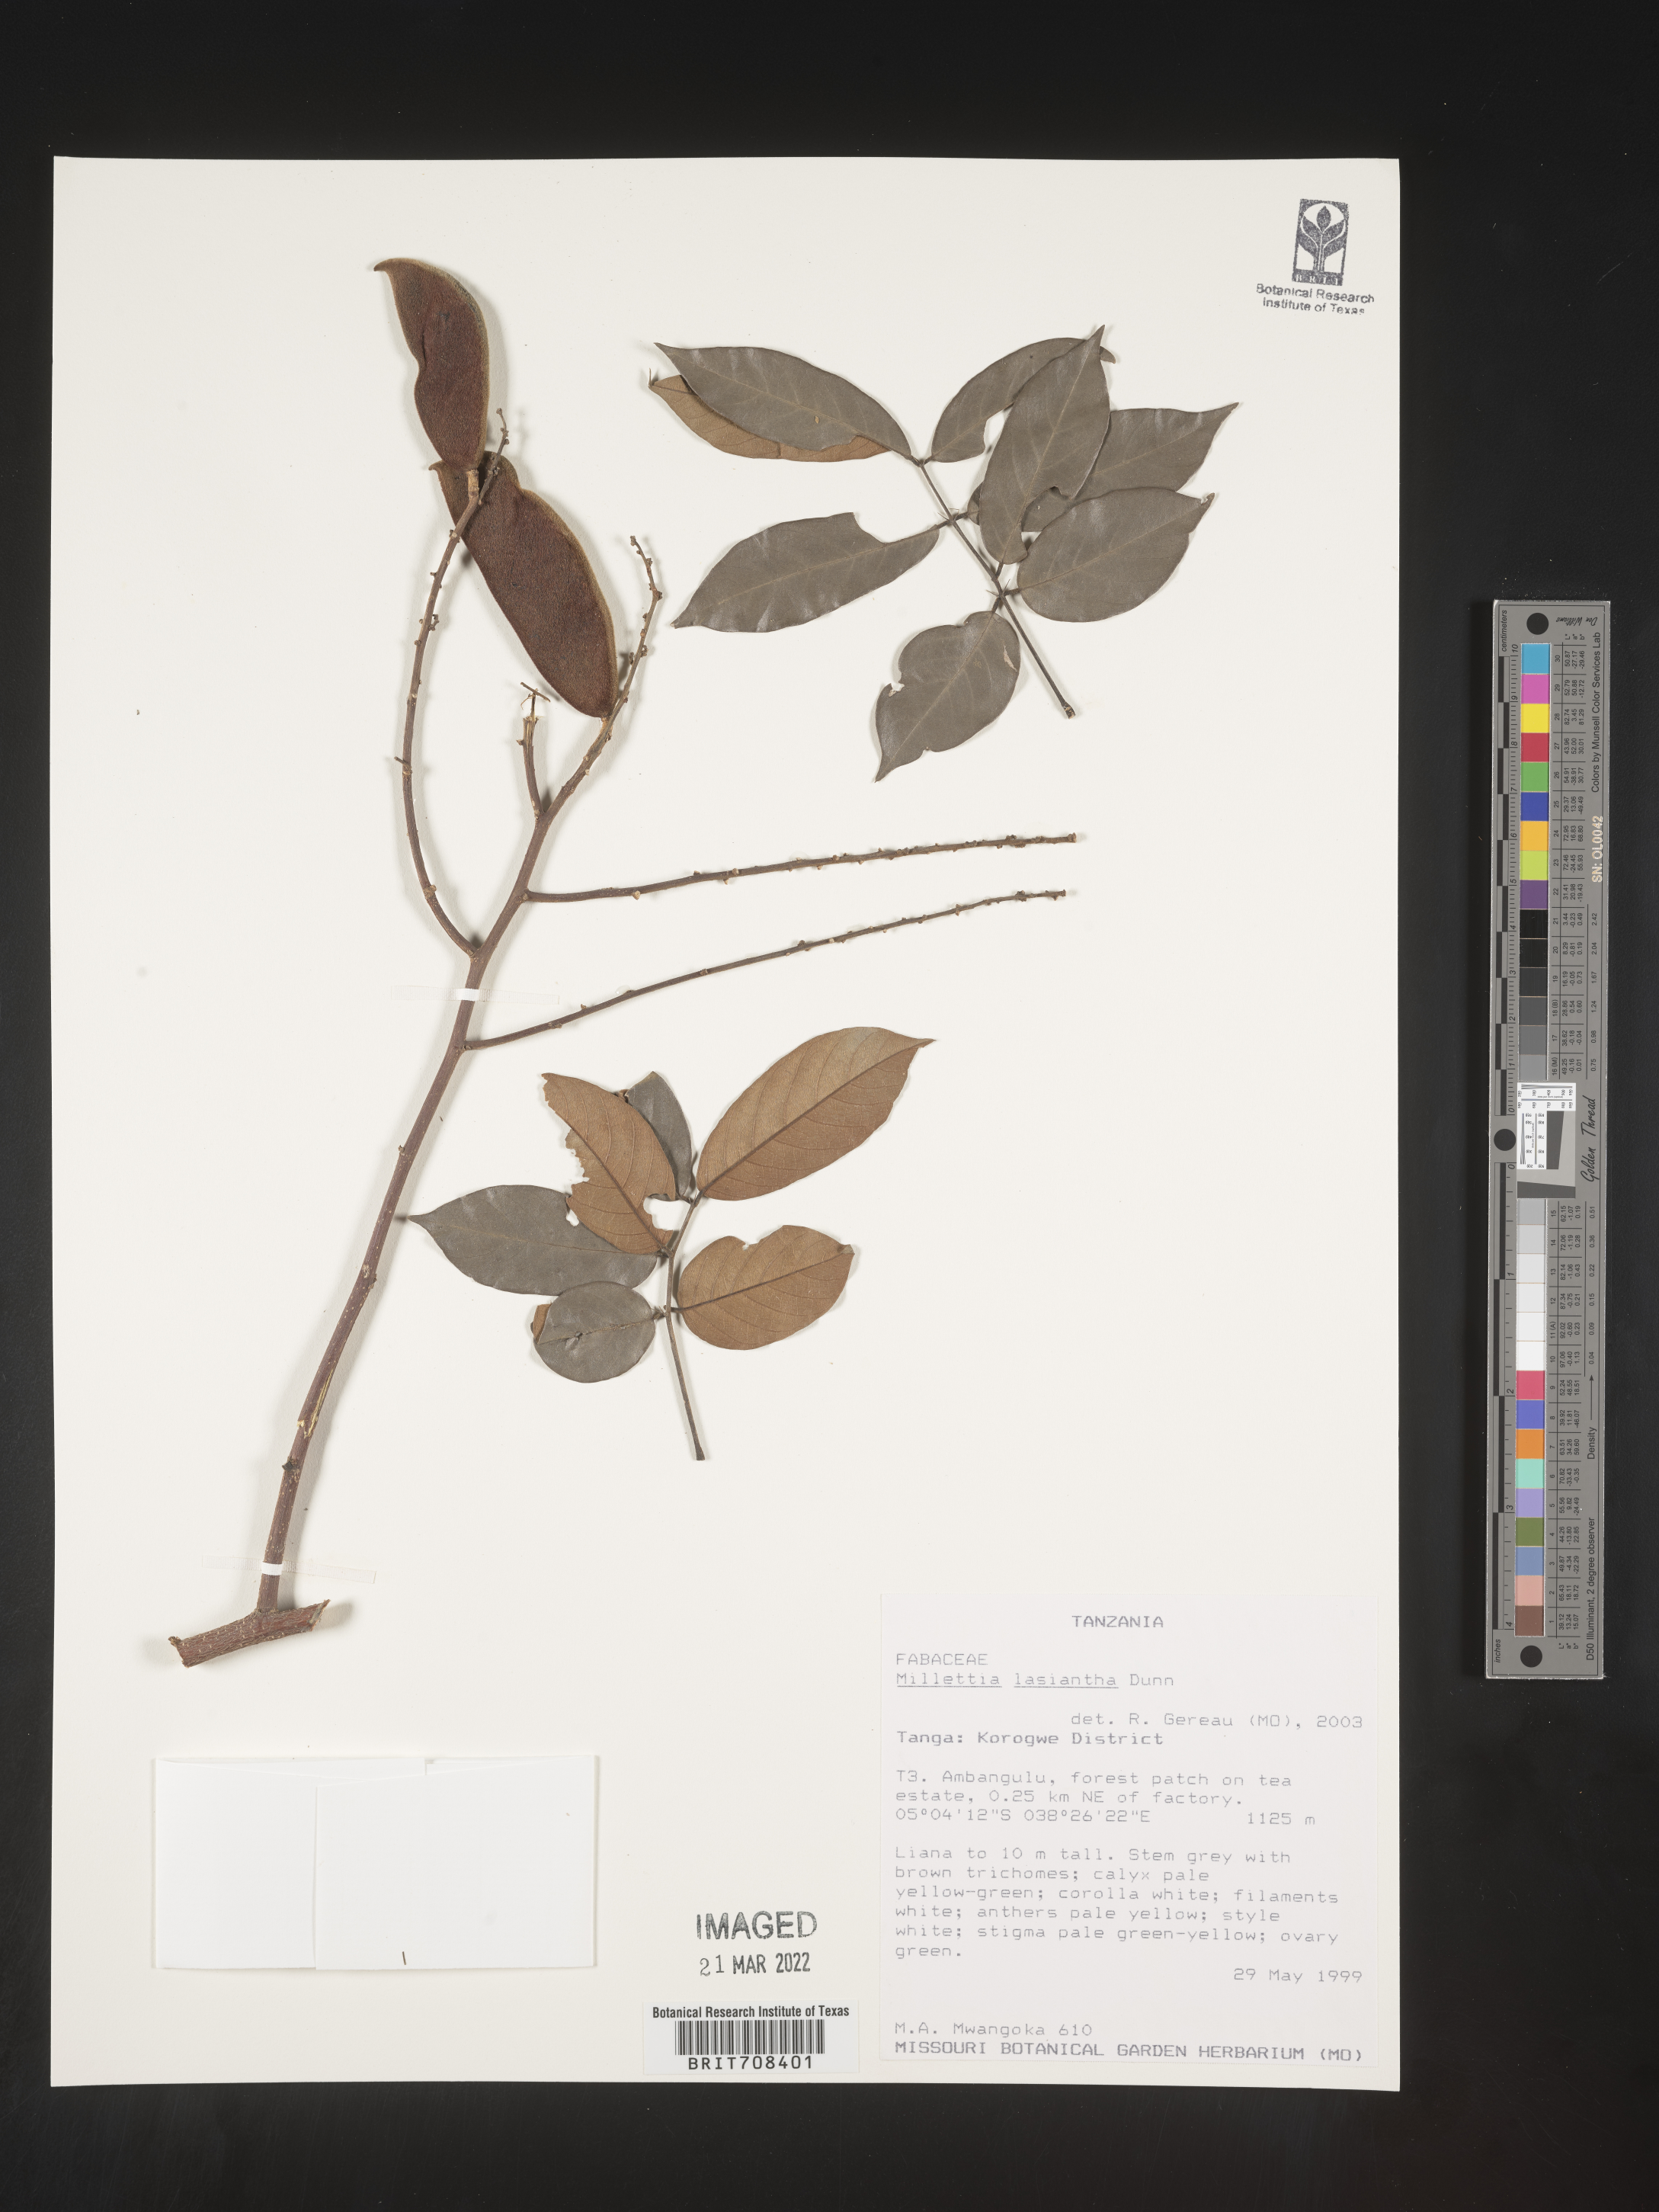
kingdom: Plantae
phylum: Tracheophyta
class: Magnoliopsida
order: Fabales
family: Fabaceae
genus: Millettia
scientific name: Millettia
